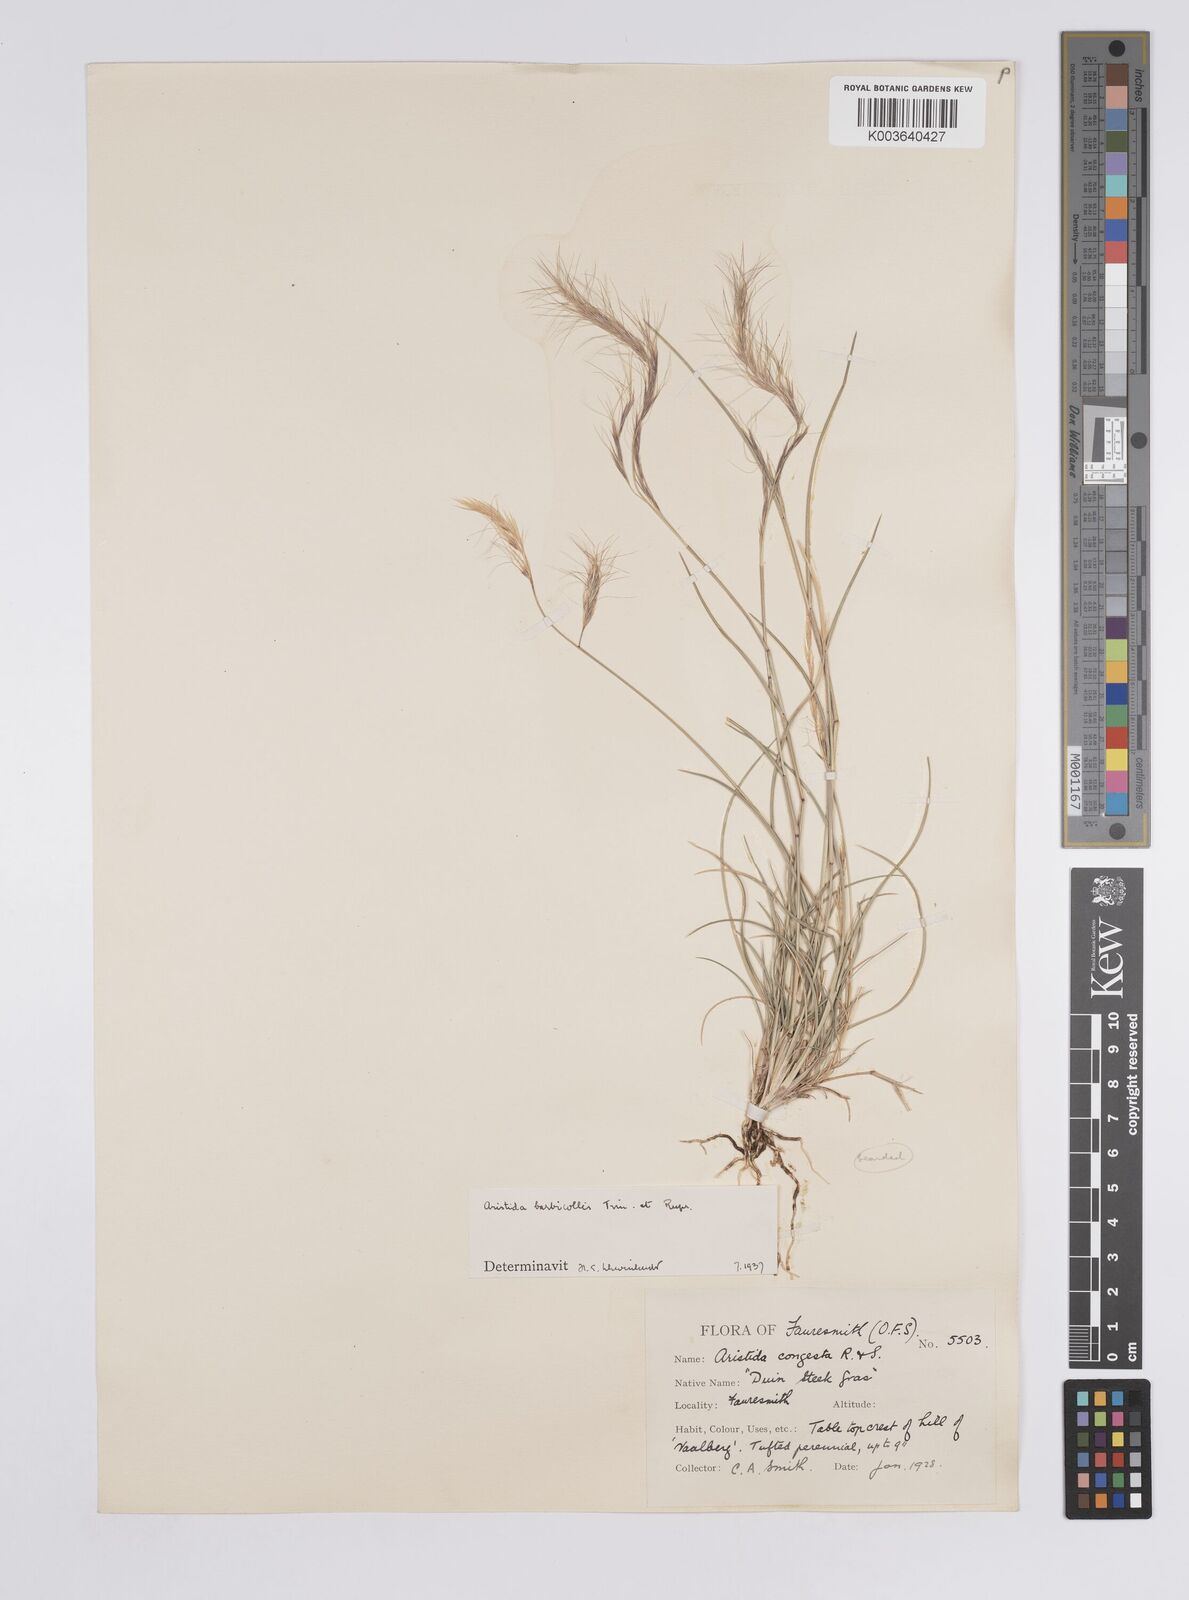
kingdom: Plantae
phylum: Tracheophyta
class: Liliopsida
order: Poales
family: Poaceae
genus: Aristida
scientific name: Aristida barbicollis
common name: Spreading prickle grass
